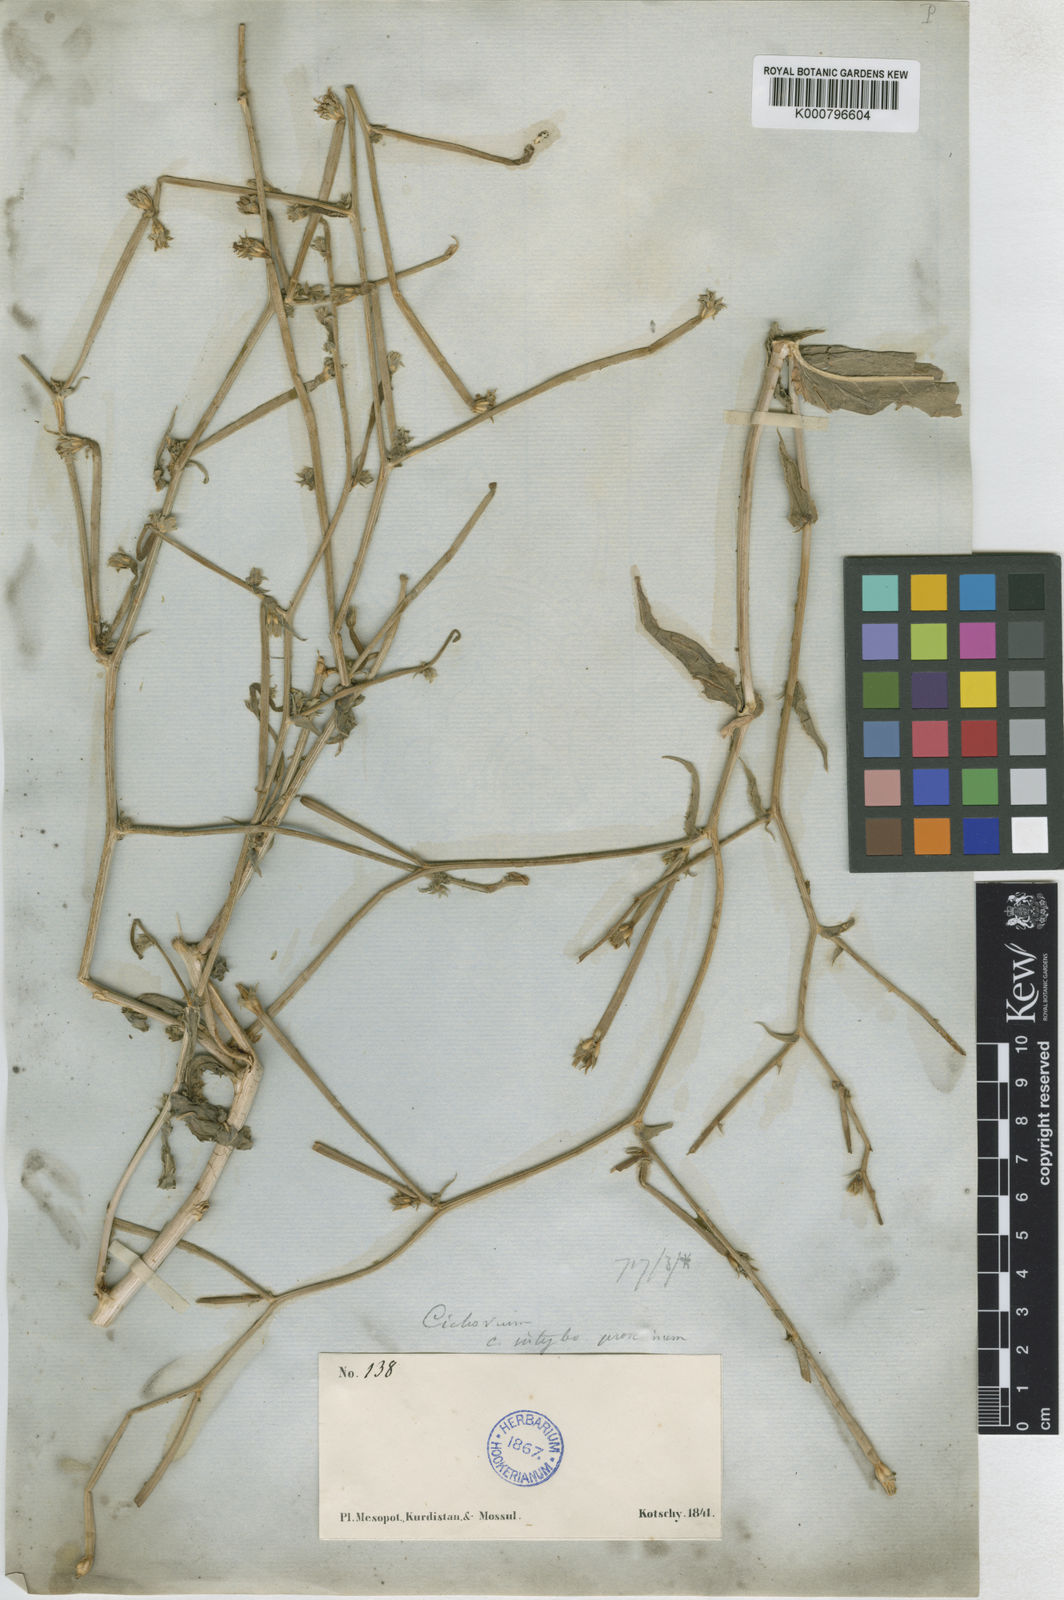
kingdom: Plantae
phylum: Tracheophyta
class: Magnoliopsida
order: Asterales
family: Asteraceae
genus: Cichorium
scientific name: Cichorium glandulosum
